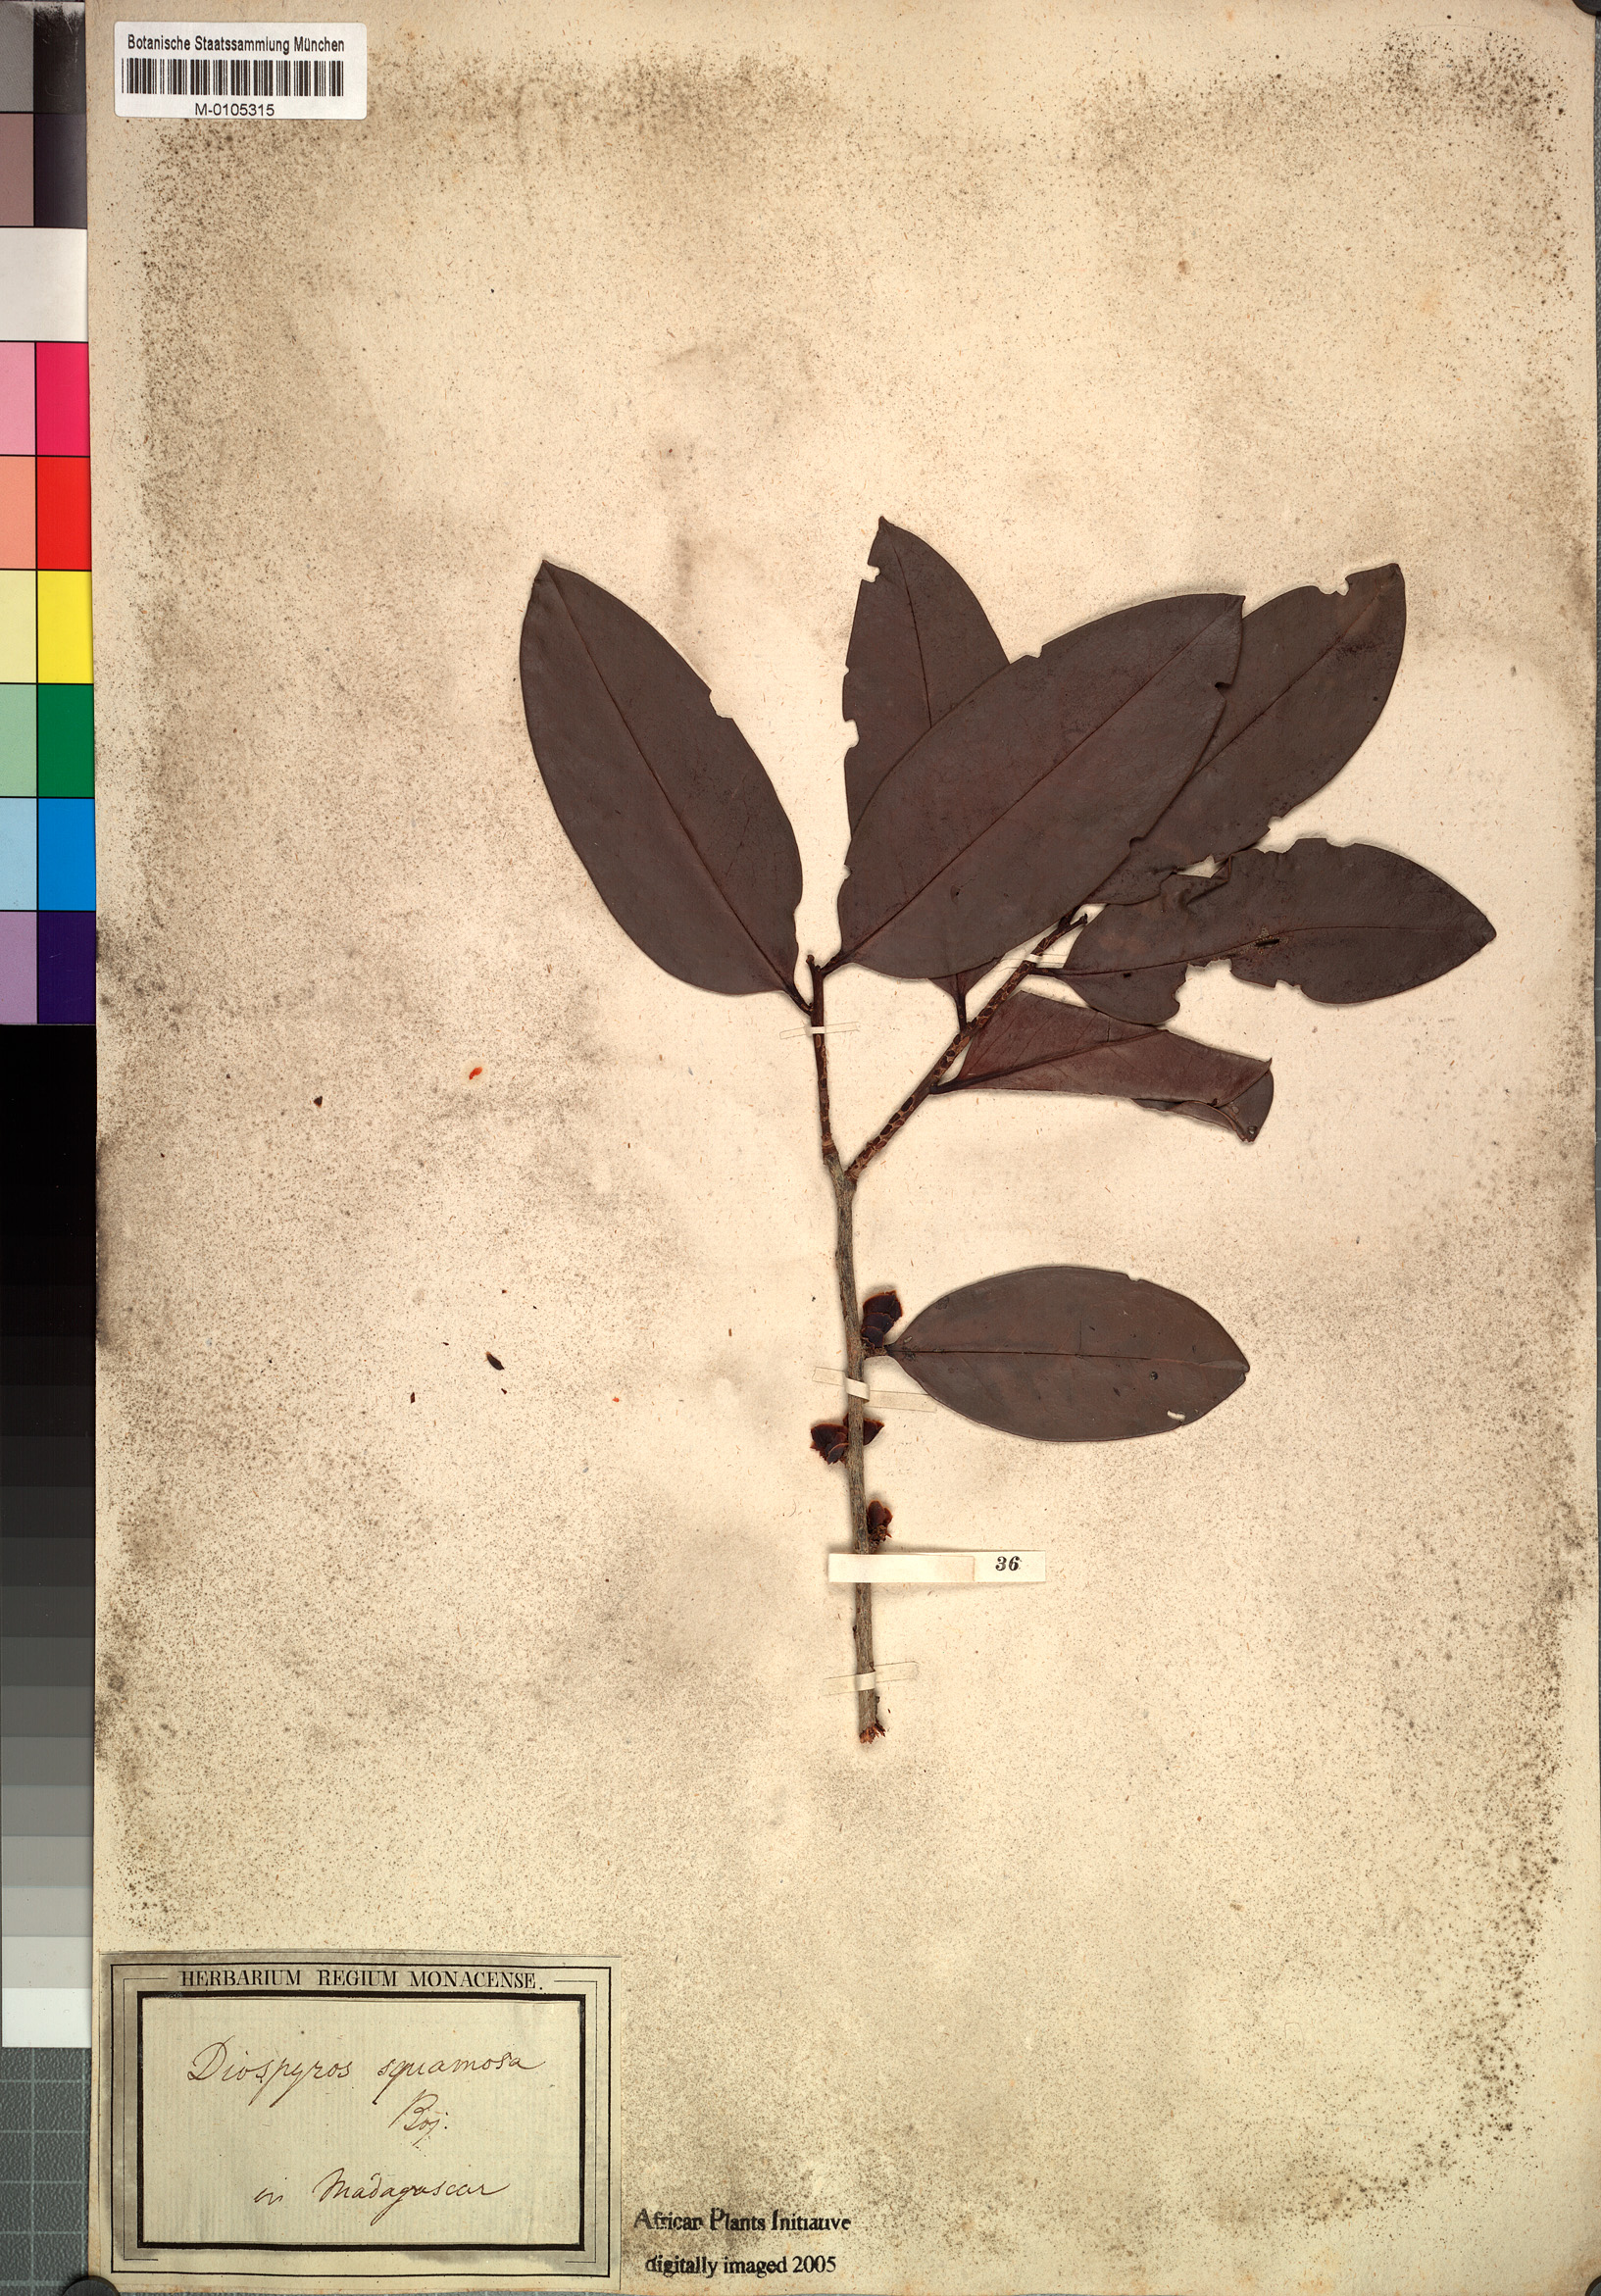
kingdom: Plantae
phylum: Tracheophyta
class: Magnoliopsida
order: Ericales
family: Ebenaceae
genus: Diospyros
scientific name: Diospyros squamosa
